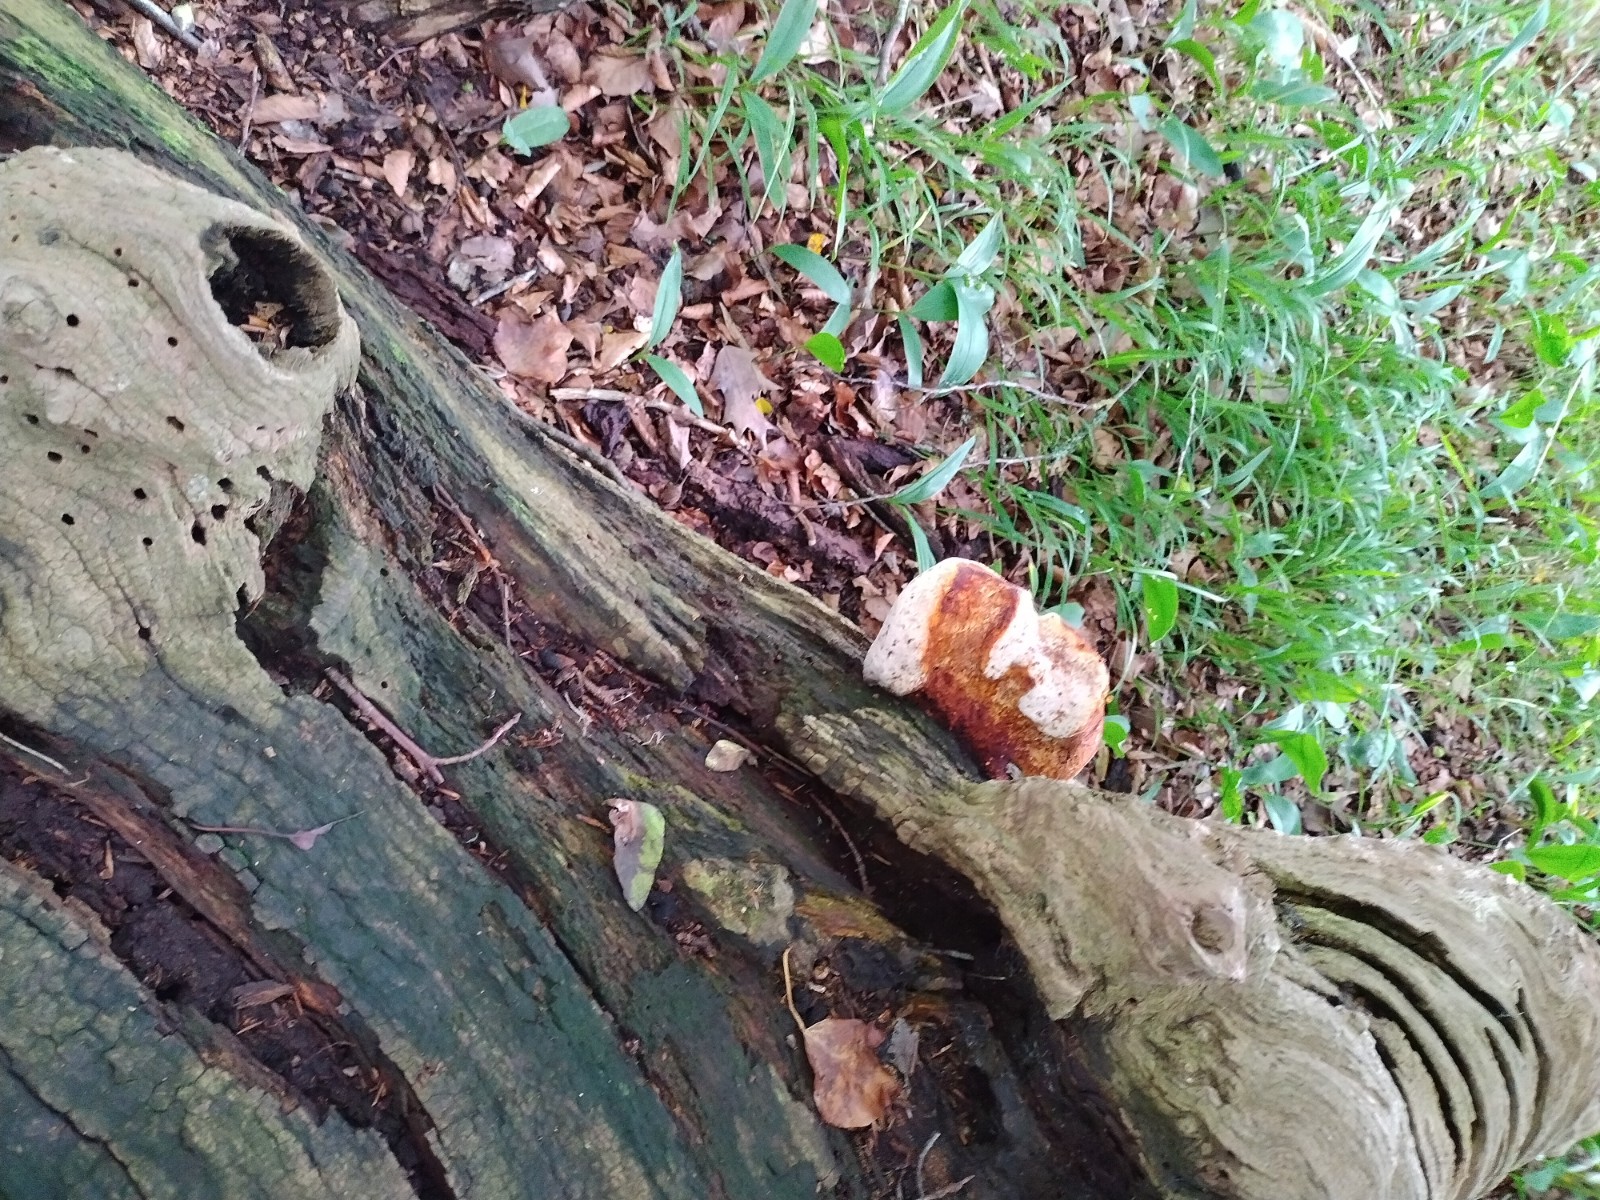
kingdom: Fungi
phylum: Basidiomycota
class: Agaricomycetes
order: Polyporales
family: Fomitopsidaceae
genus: Buglossoporus
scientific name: Buglossoporus quercinus
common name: egetunge
